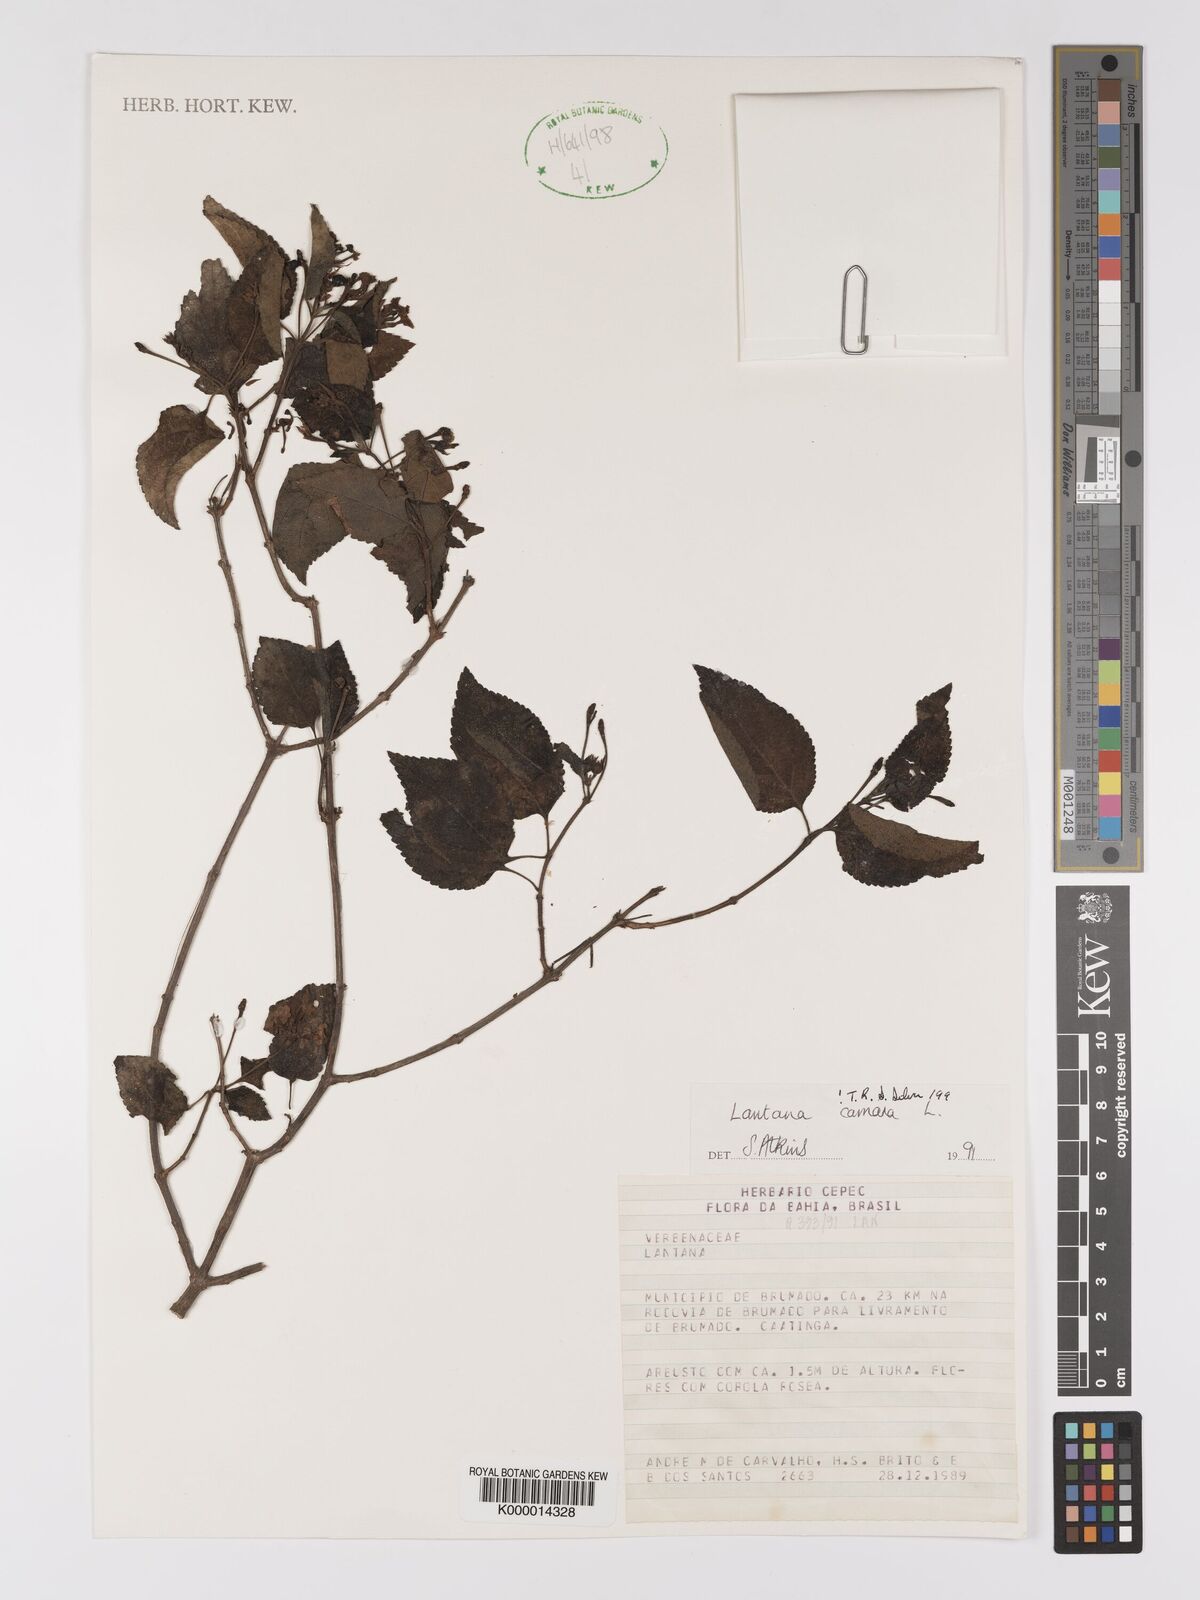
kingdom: Plantae
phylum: Tracheophyta
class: Magnoliopsida
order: Lamiales
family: Verbenaceae
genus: Lantana
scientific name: Lantana camara
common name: Lantana
